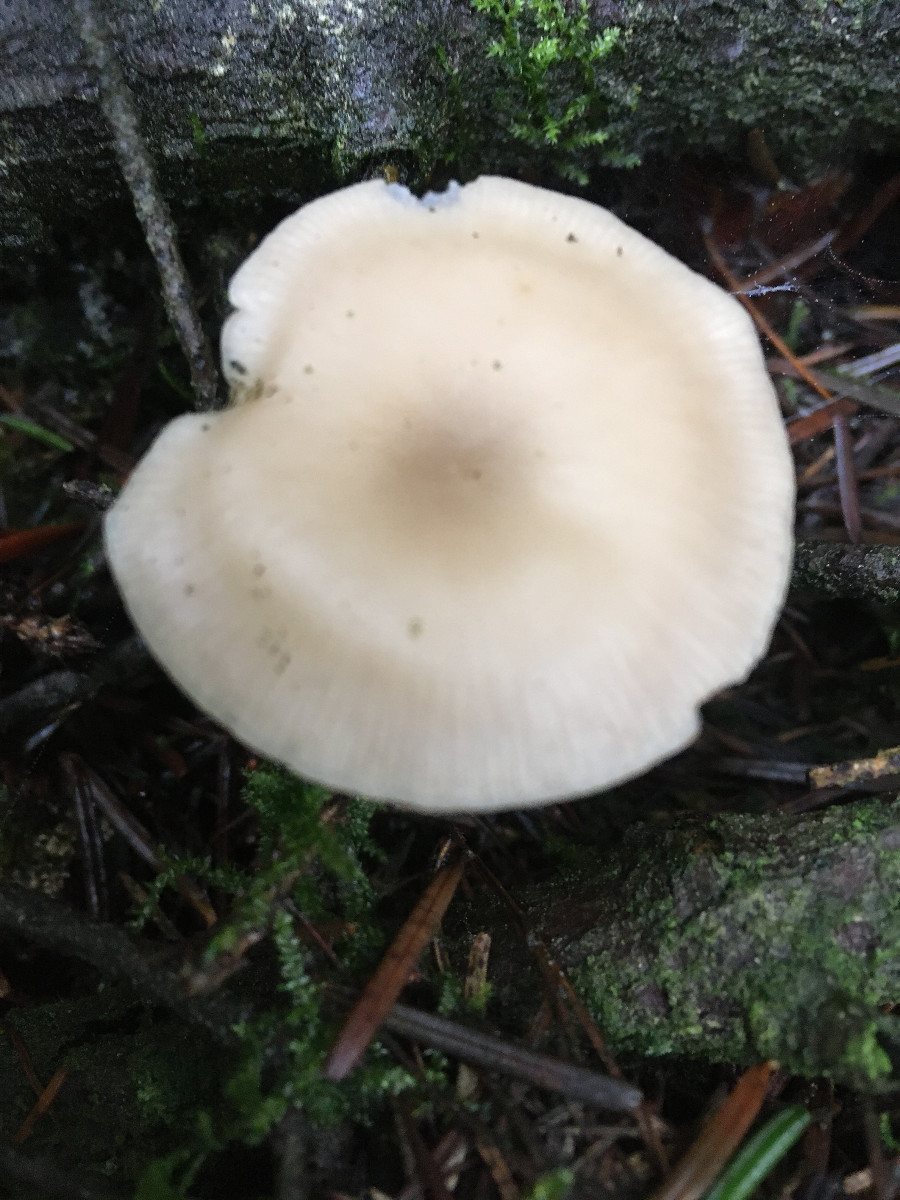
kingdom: Fungi
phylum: Basidiomycota
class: Agaricomycetes
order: Agaricales
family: Tricholomataceae
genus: Clitocybe
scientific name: Clitocybe
